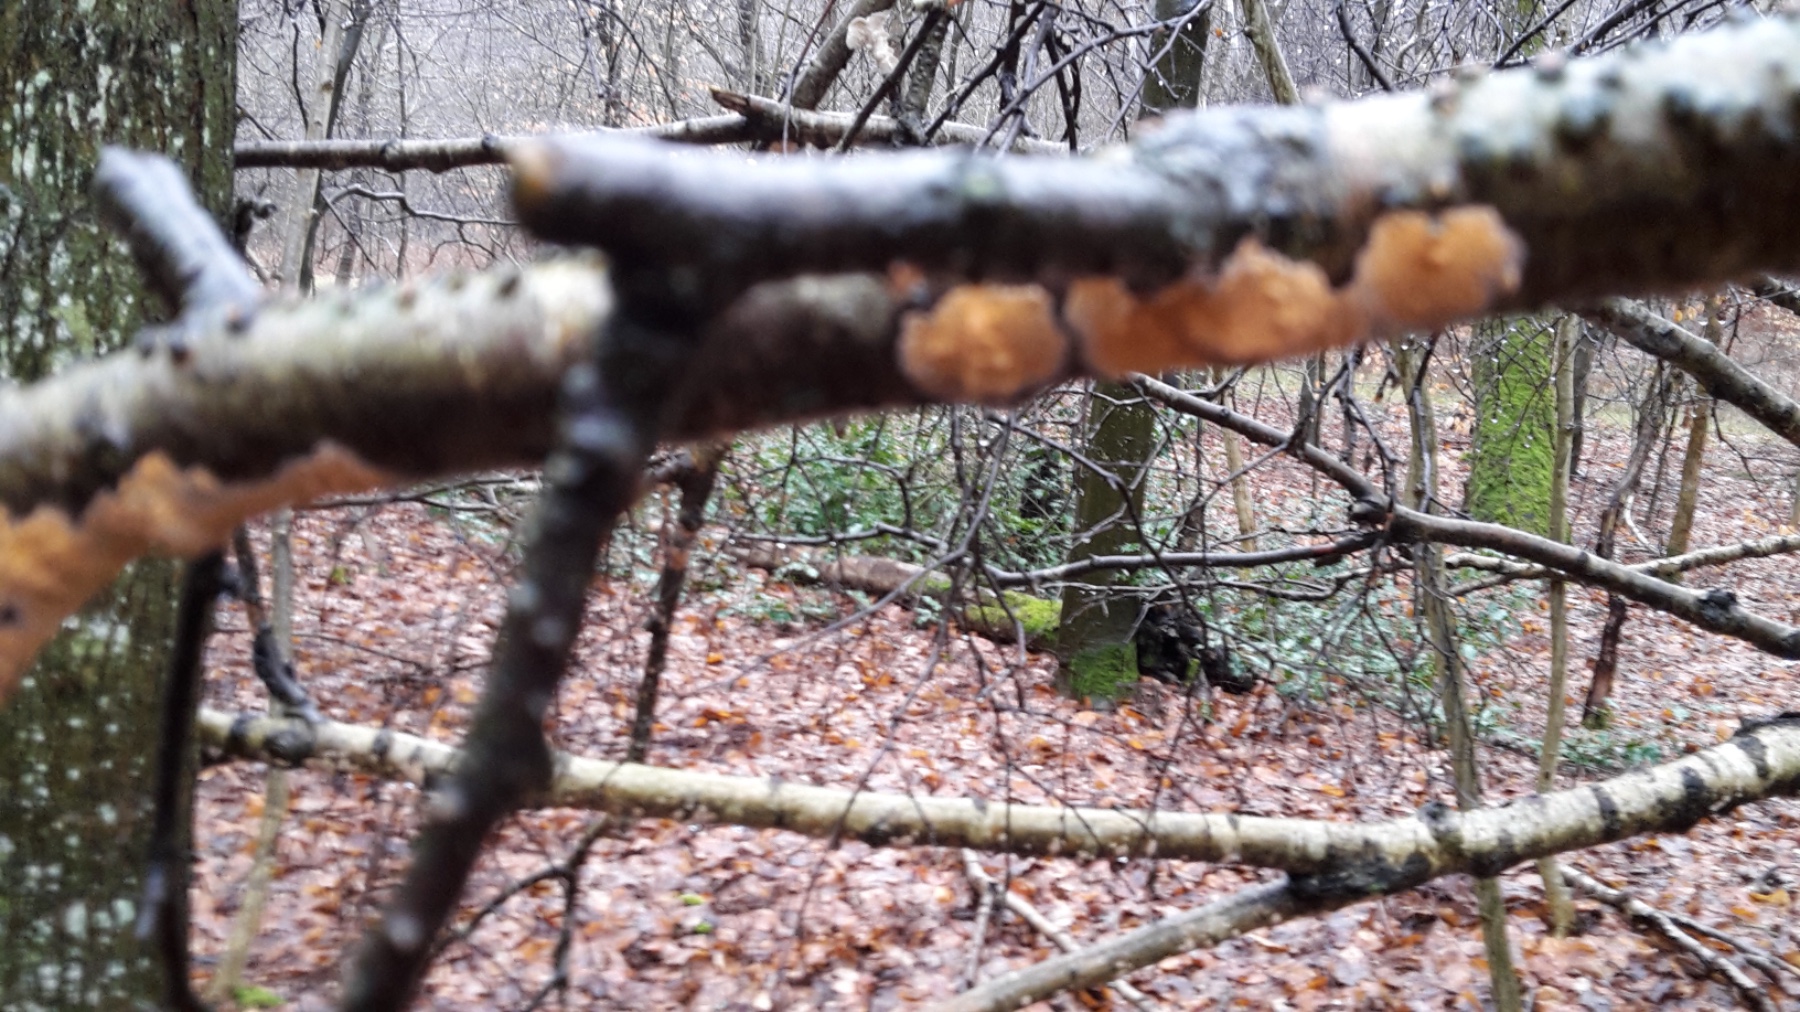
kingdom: Fungi
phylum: Basidiomycota
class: Agaricomycetes
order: Russulales
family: Peniophoraceae
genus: Peniophora
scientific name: Peniophora incarnata
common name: laksefarvet voksskind
